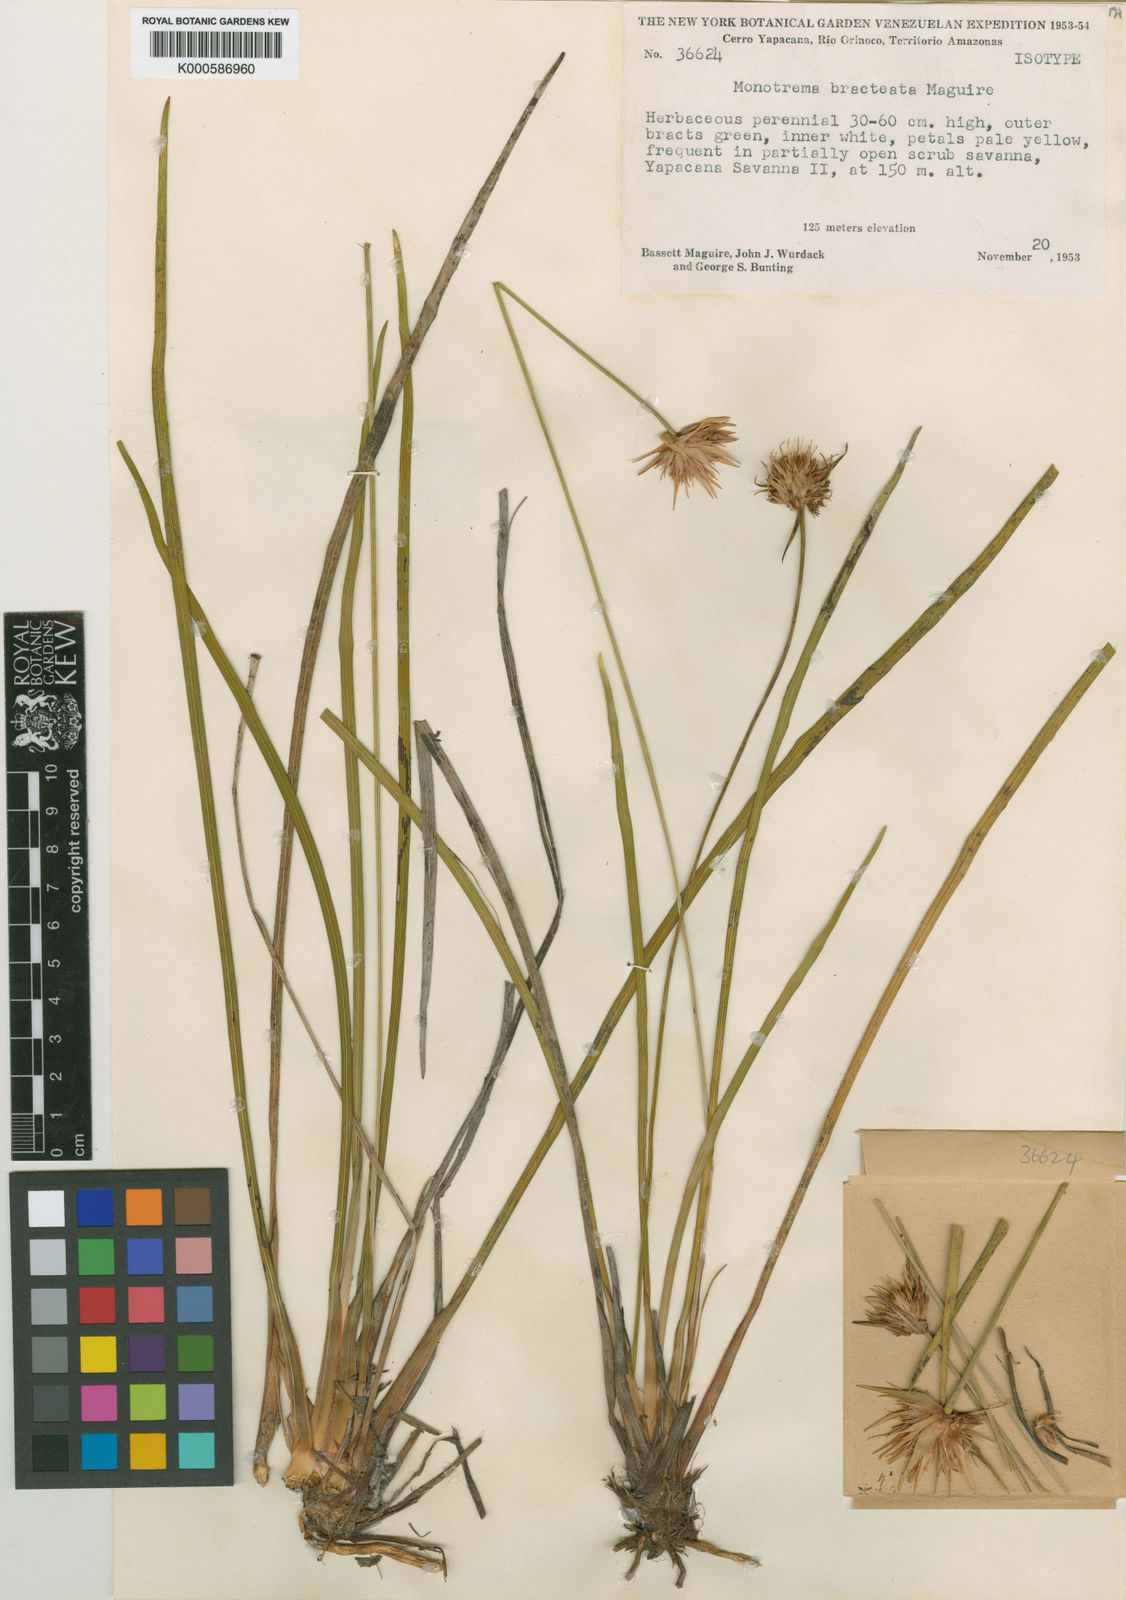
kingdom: Plantae
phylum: Tracheophyta
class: Liliopsida
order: Poales
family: Rapateaceae
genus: Monotrema
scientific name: Monotrema bracteatum
